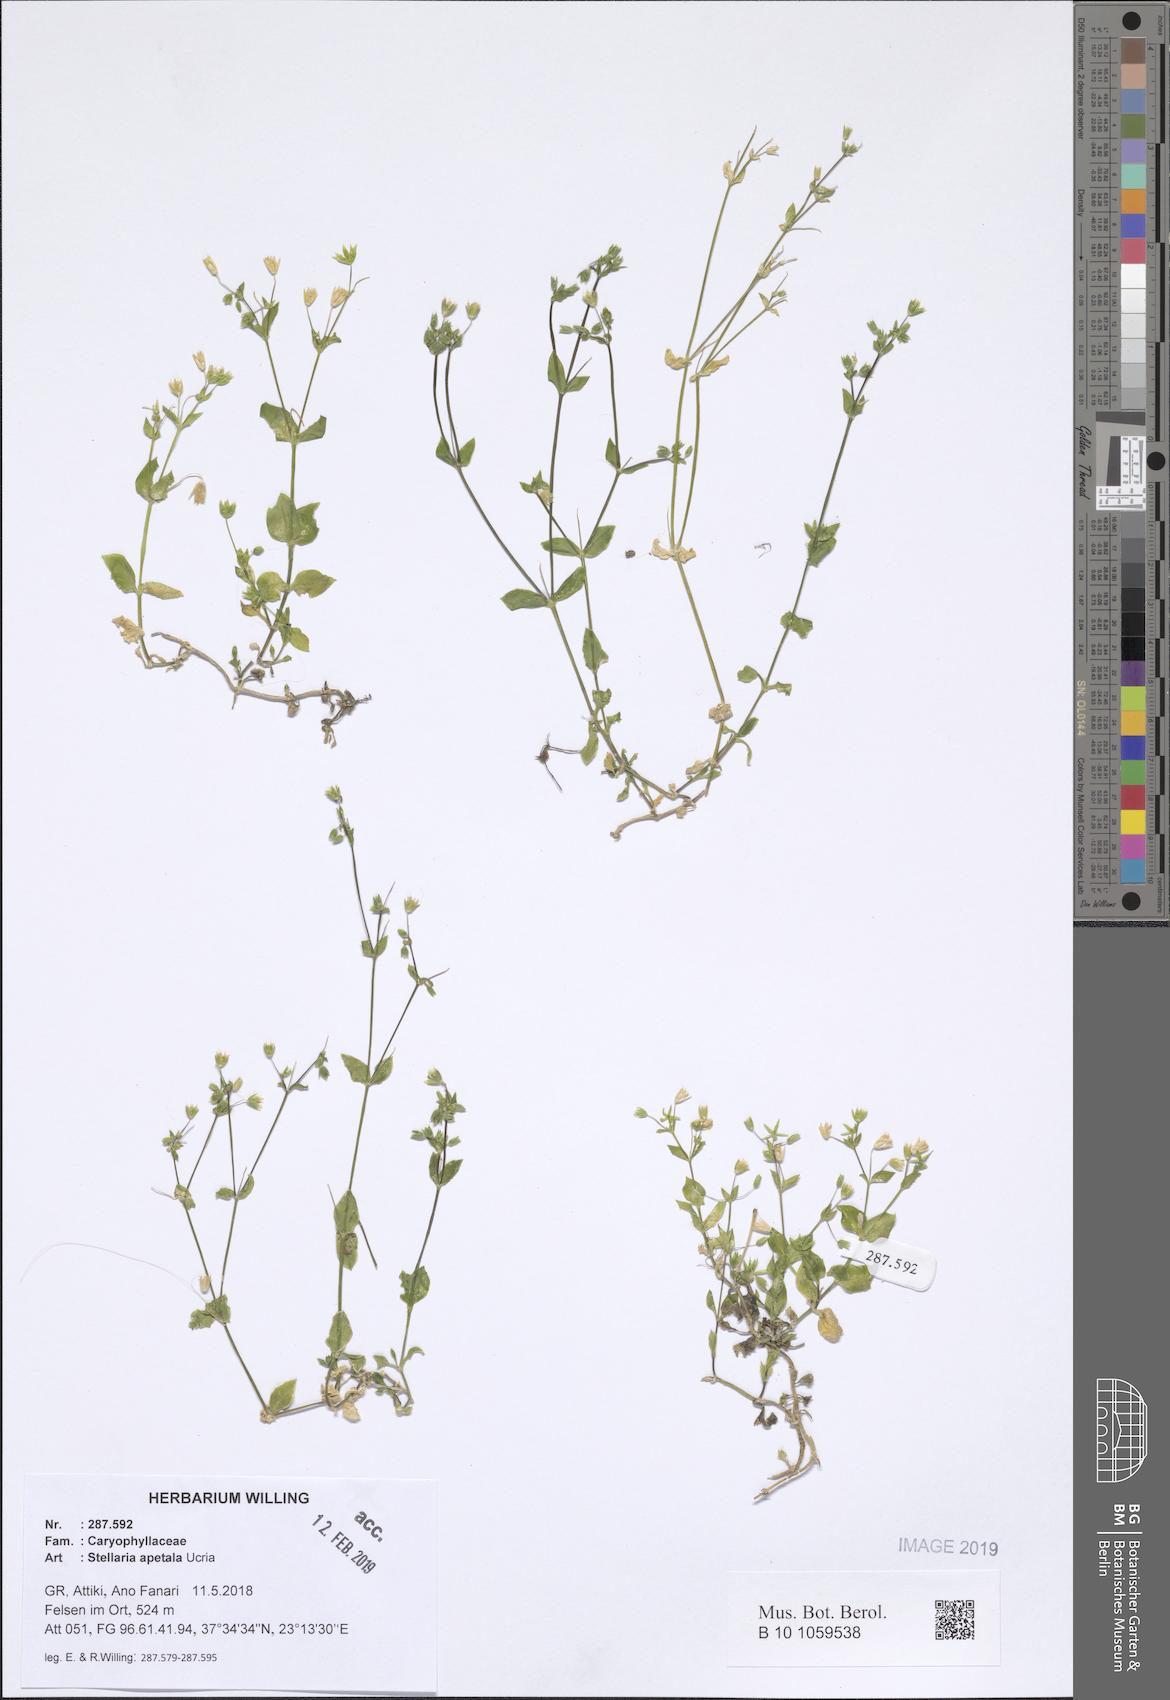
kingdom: Plantae
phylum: Tracheophyta
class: Magnoliopsida
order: Caryophyllales
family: Caryophyllaceae
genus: Stellaria
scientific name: Stellaria apetala
